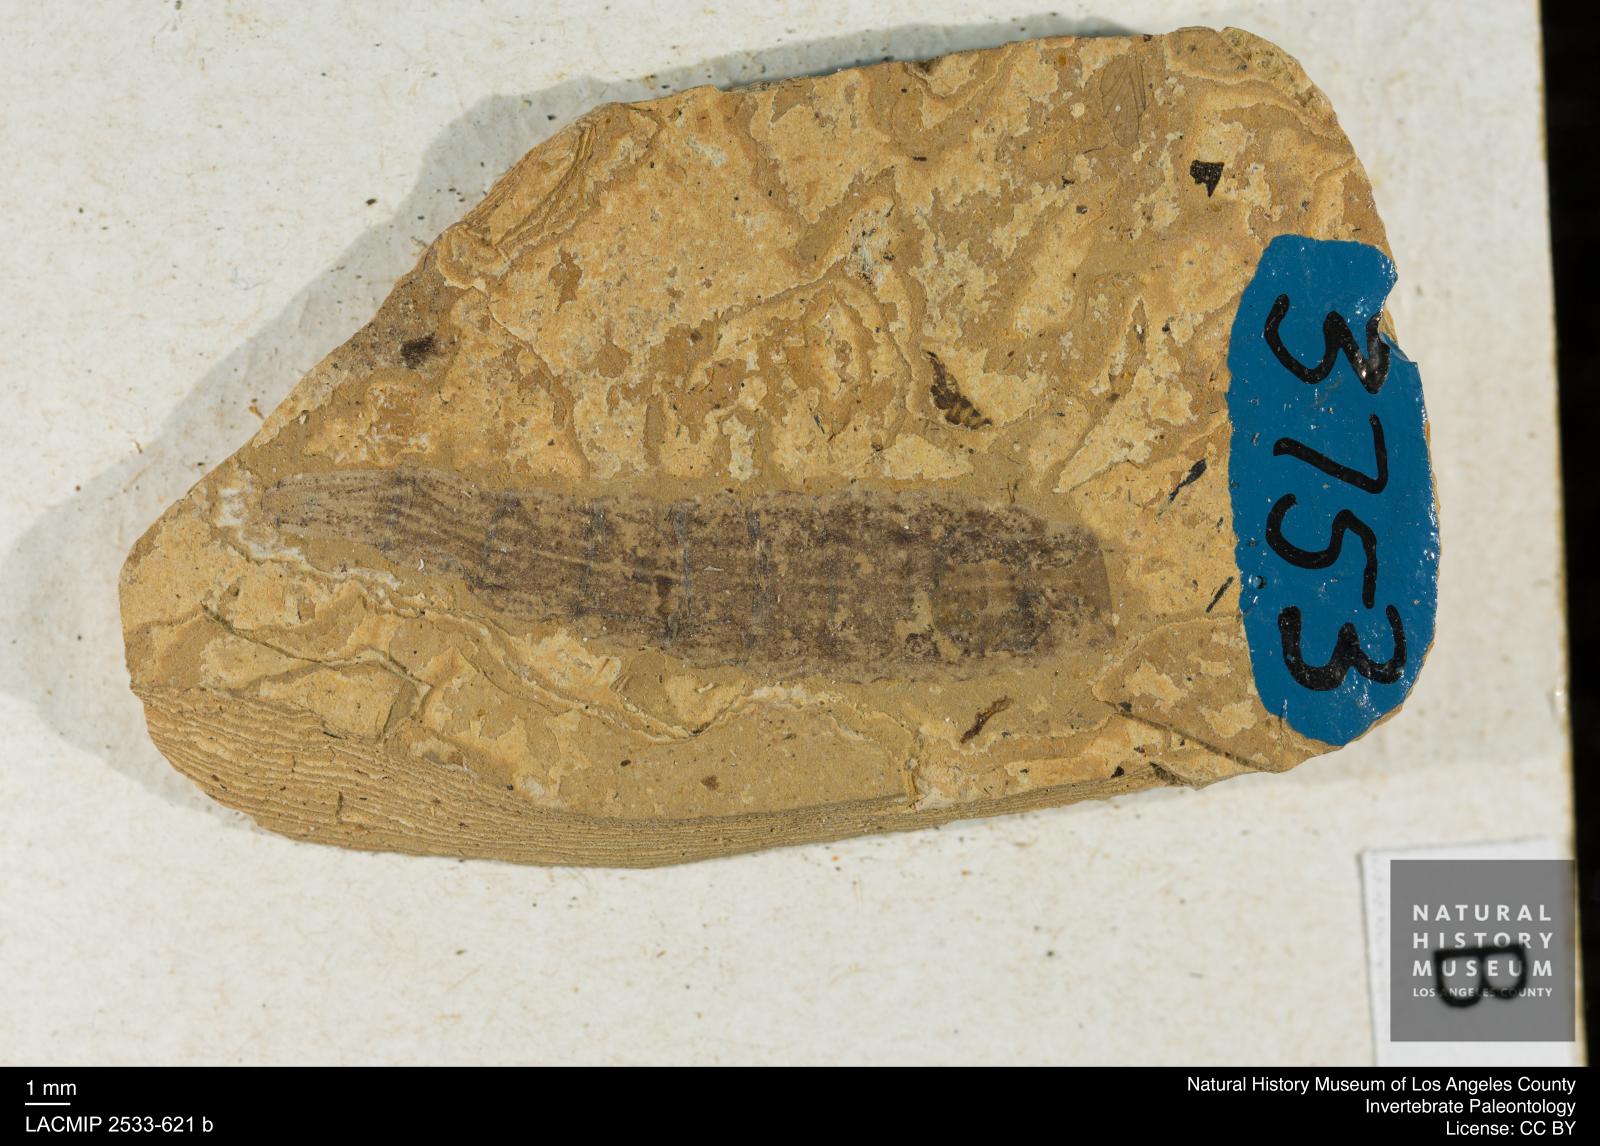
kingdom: Animalia
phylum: Arthropoda
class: Insecta
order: Diptera
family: Stratiomyidae
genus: Odontomyia
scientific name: Odontomyia
